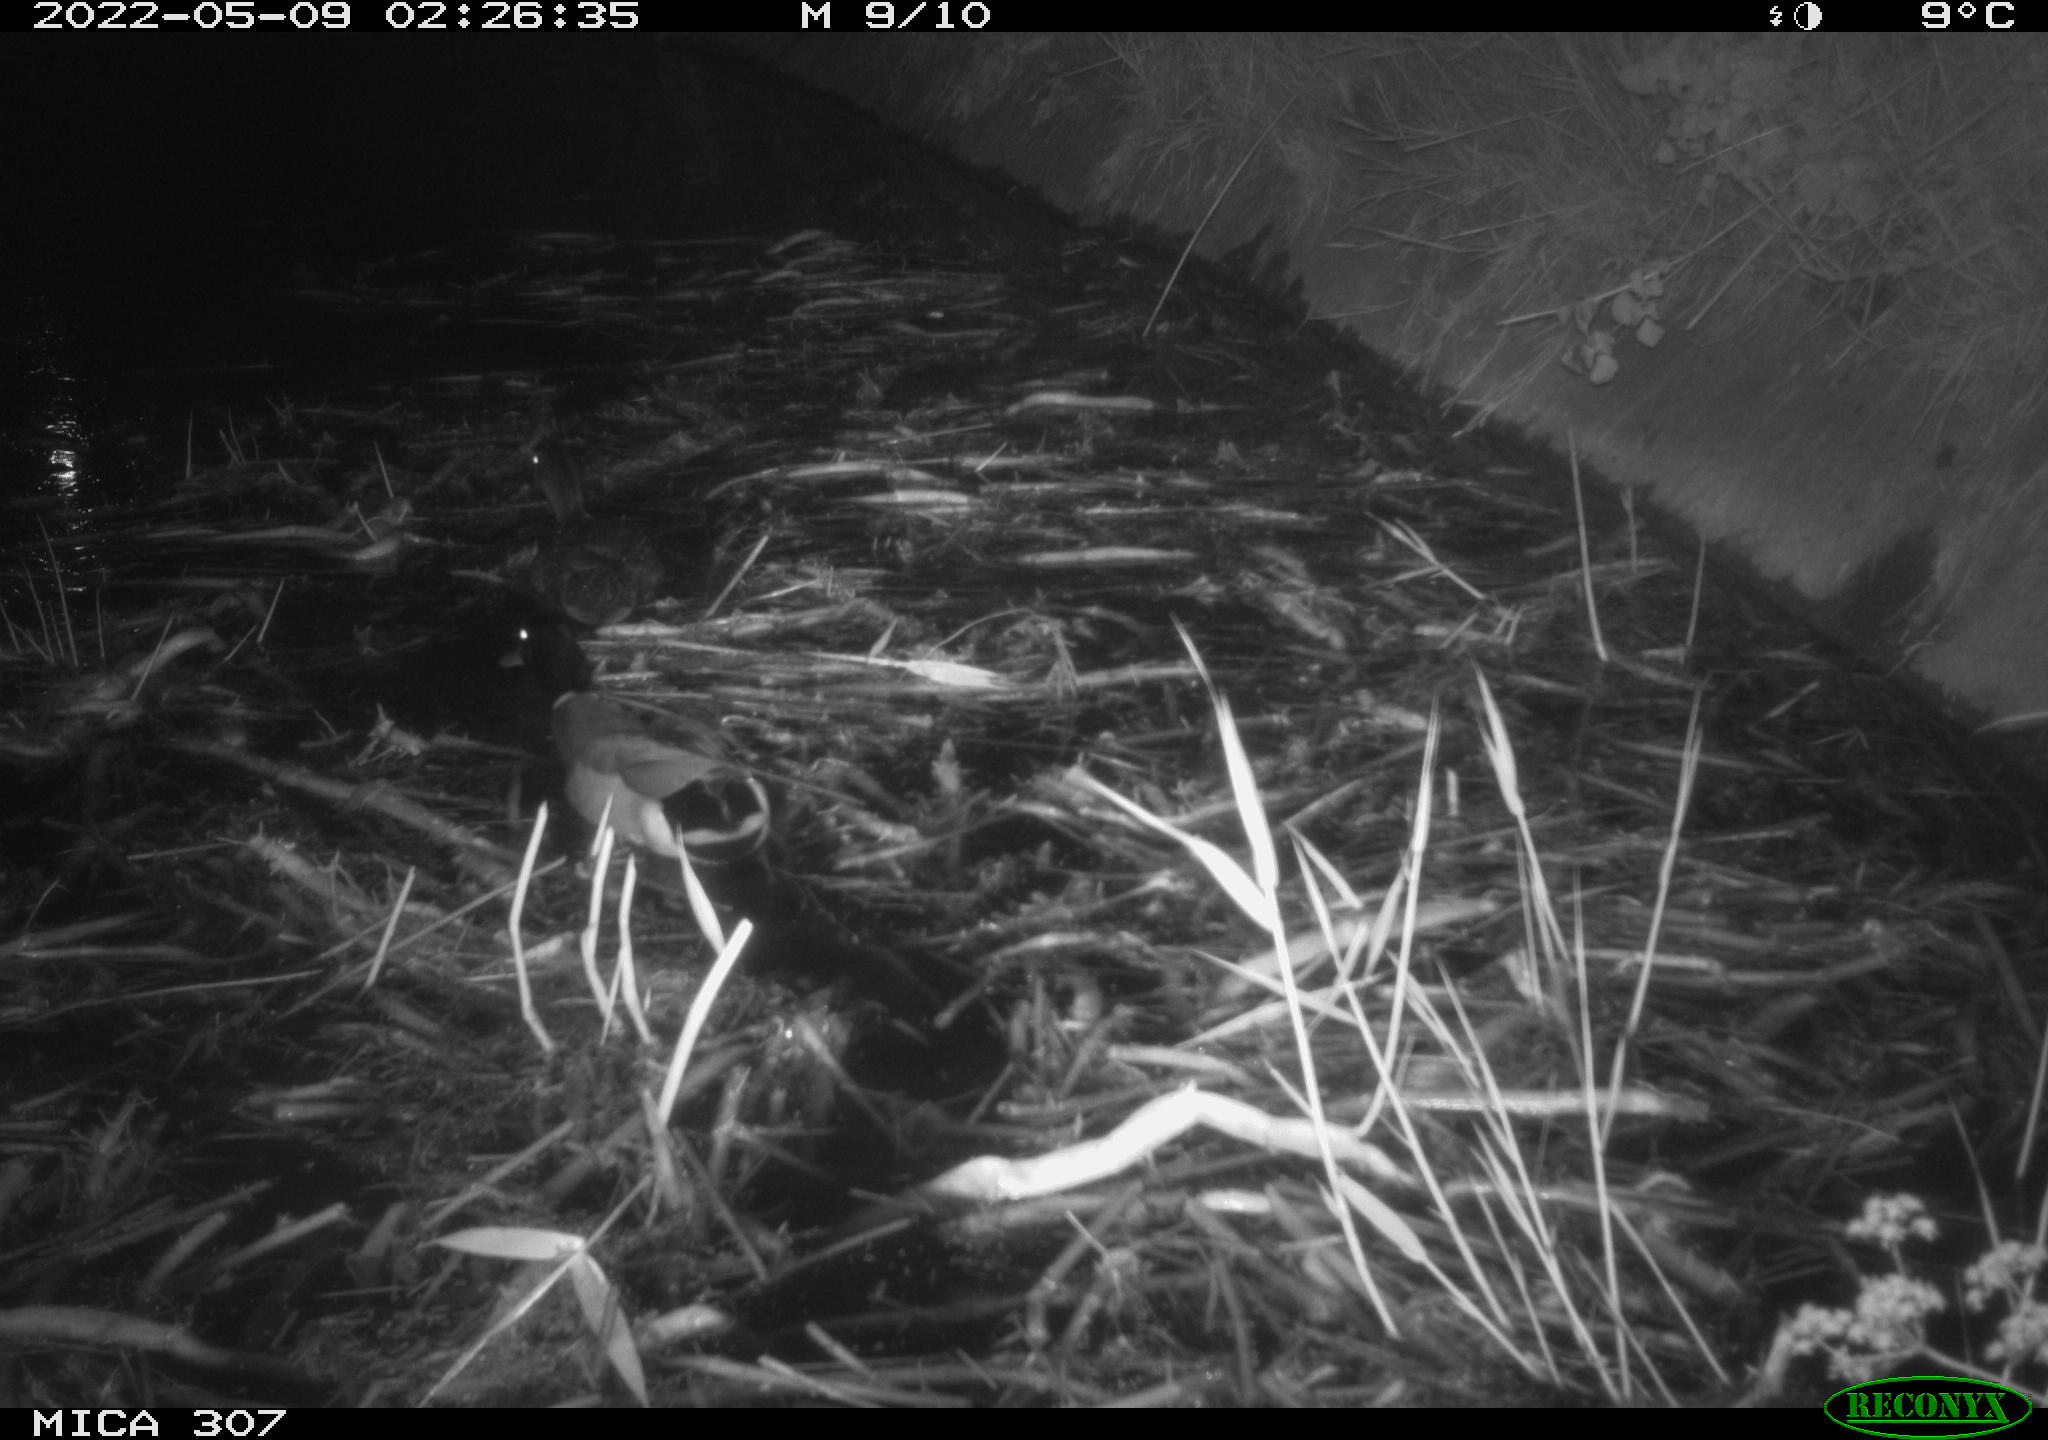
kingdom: Animalia
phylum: Chordata
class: Aves
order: Anseriformes
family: Anatidae
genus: Anas
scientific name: Anas platyrhynchos
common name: Mallard
